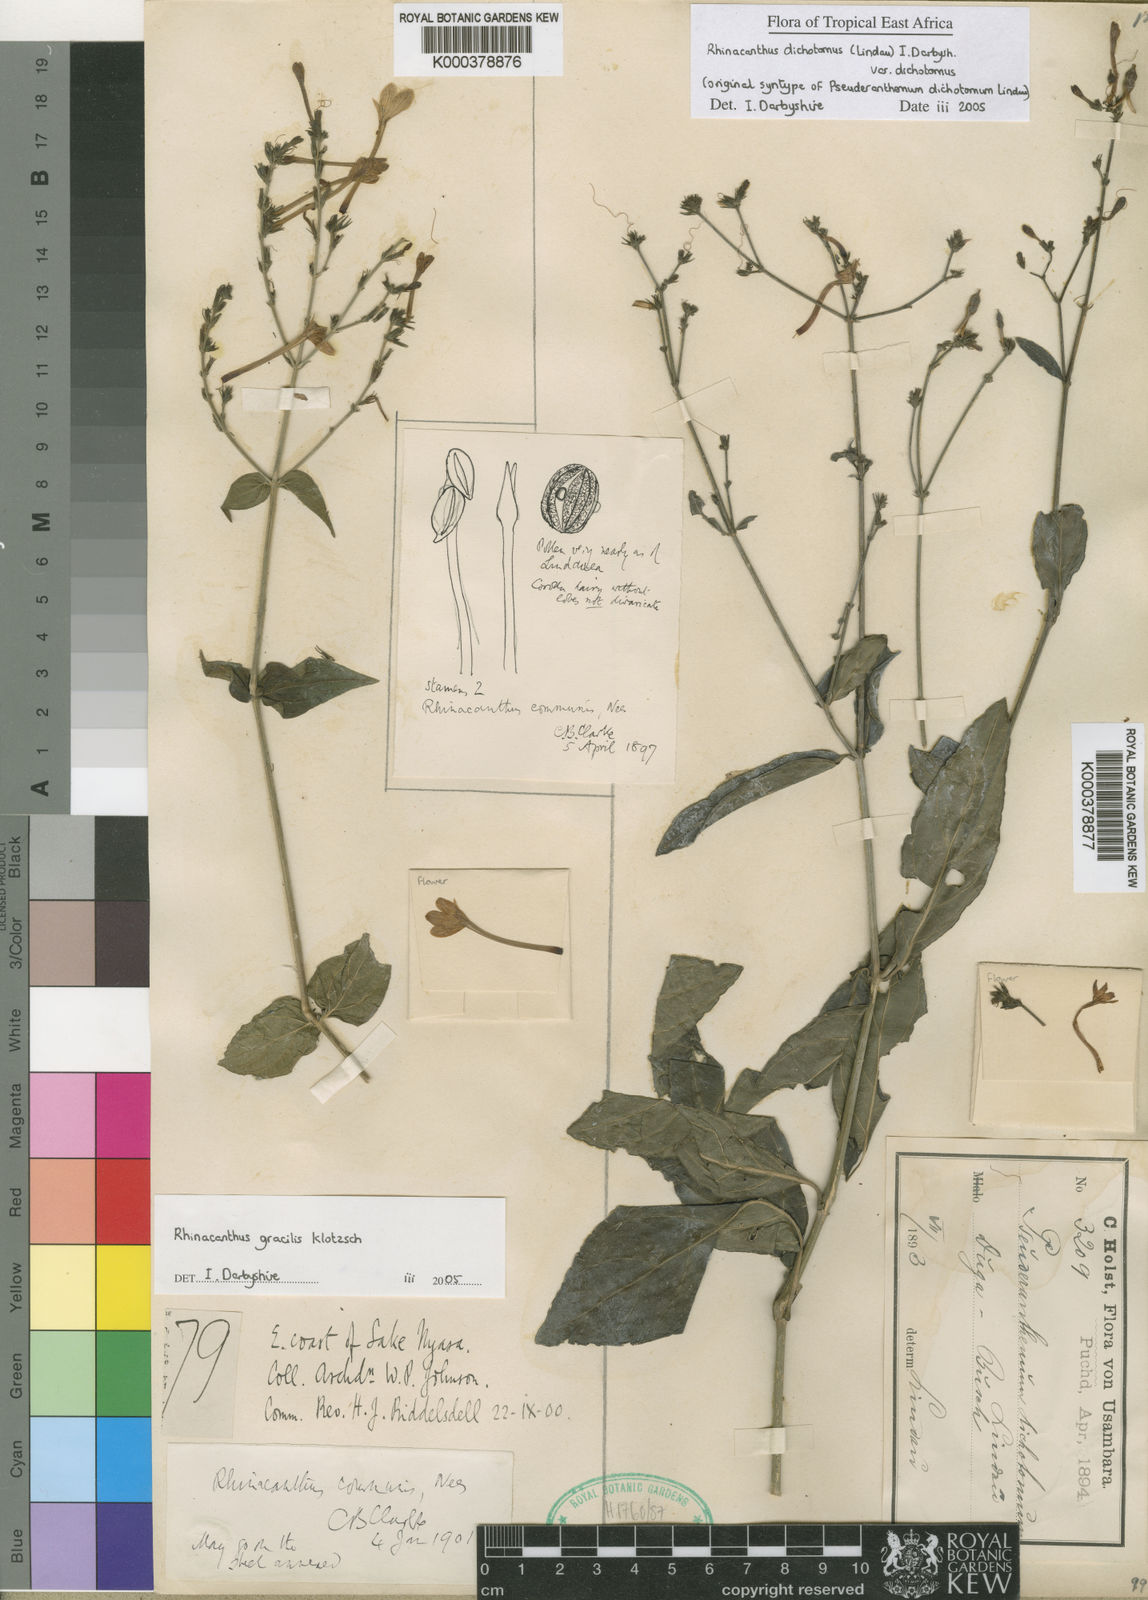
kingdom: Plantae
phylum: Tracheophyta
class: Magnoliopsida
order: Lamiales
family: Acanthaceae
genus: Rhinacanthus
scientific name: Rhinacanthus dichotomus
